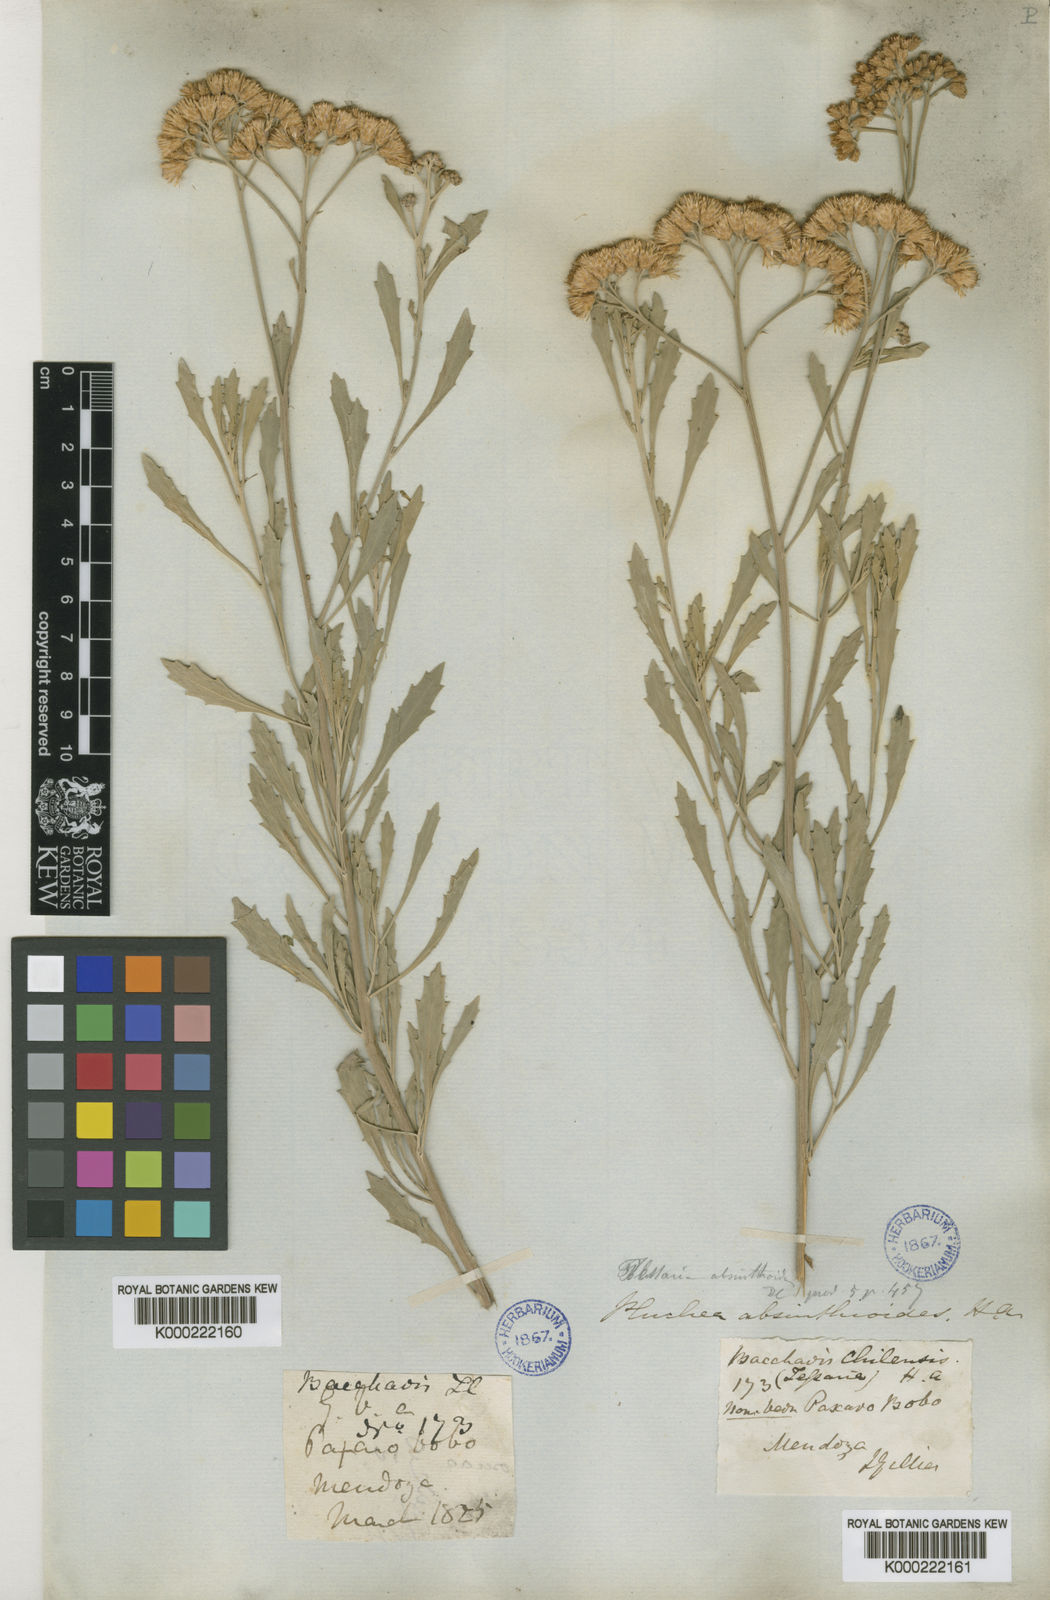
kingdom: Plantae
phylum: Tracheophyta
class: Magnoliopsida
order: Asterales
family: Asteraceae
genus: Tessaria
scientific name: Tessaria absinthioides
